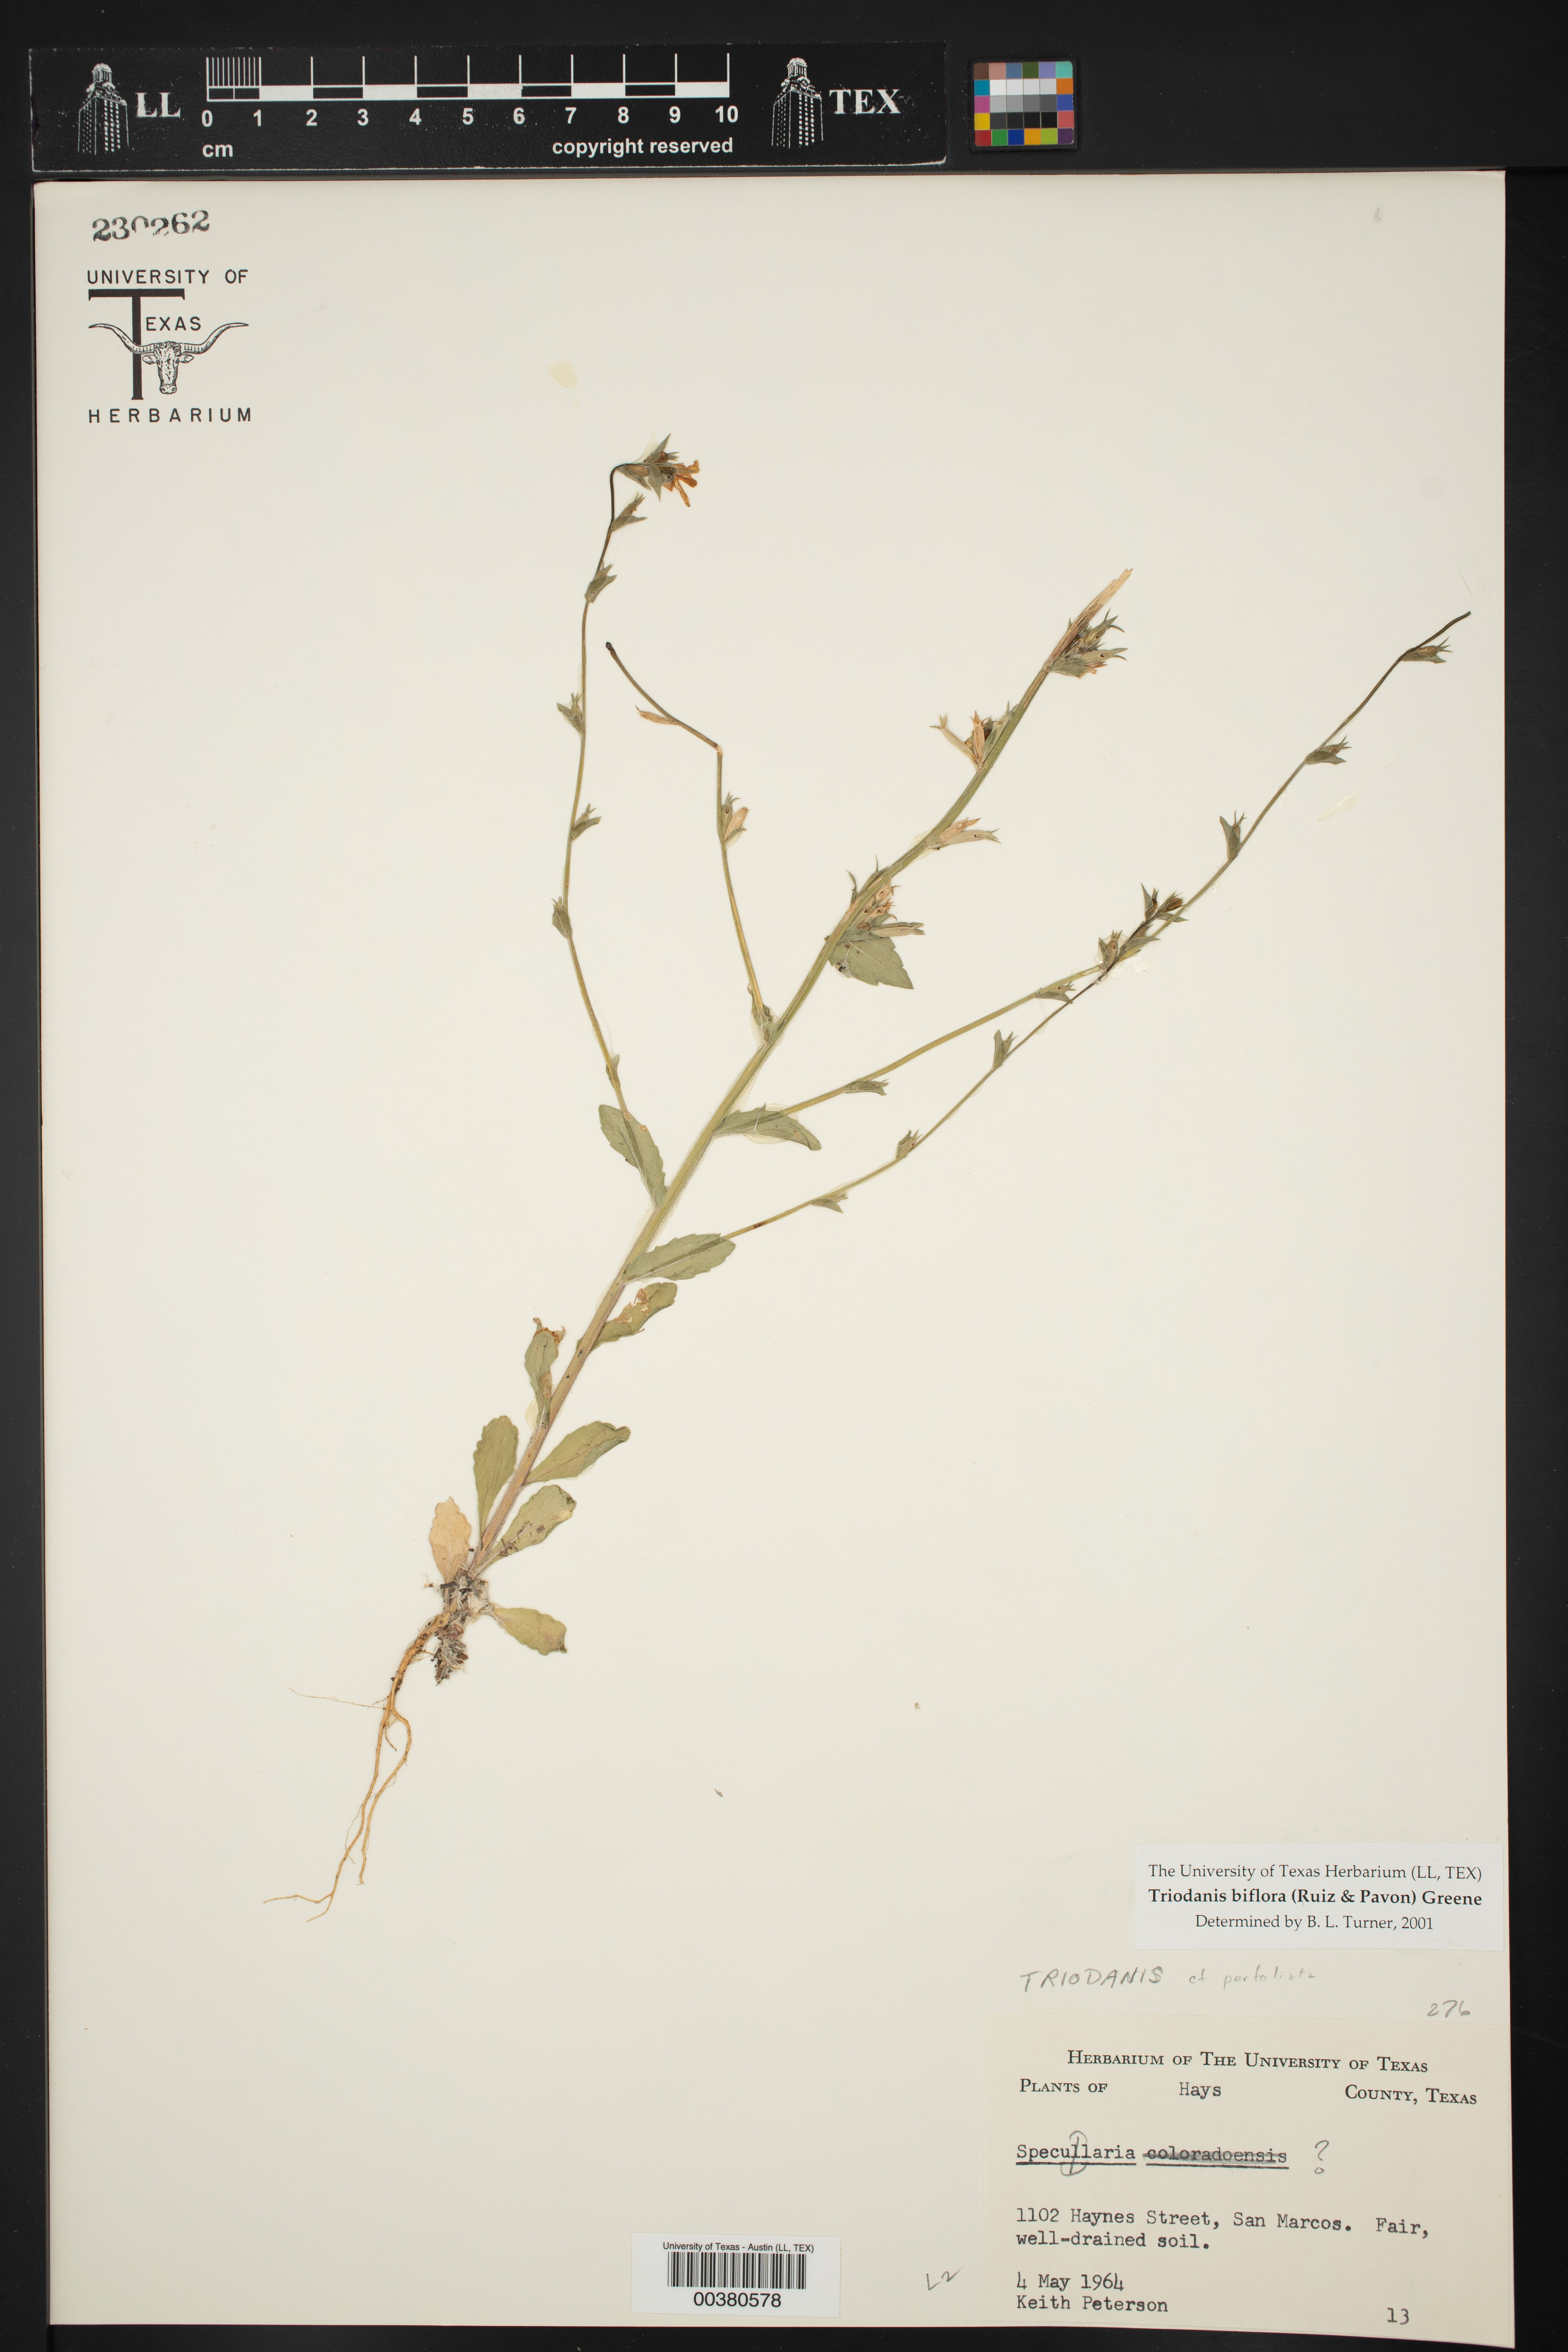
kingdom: Plantae
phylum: Tracheophyta
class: Magnoliopsida
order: Asterales
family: Campanulaceae
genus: Triodanis
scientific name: Triodanis biflora
